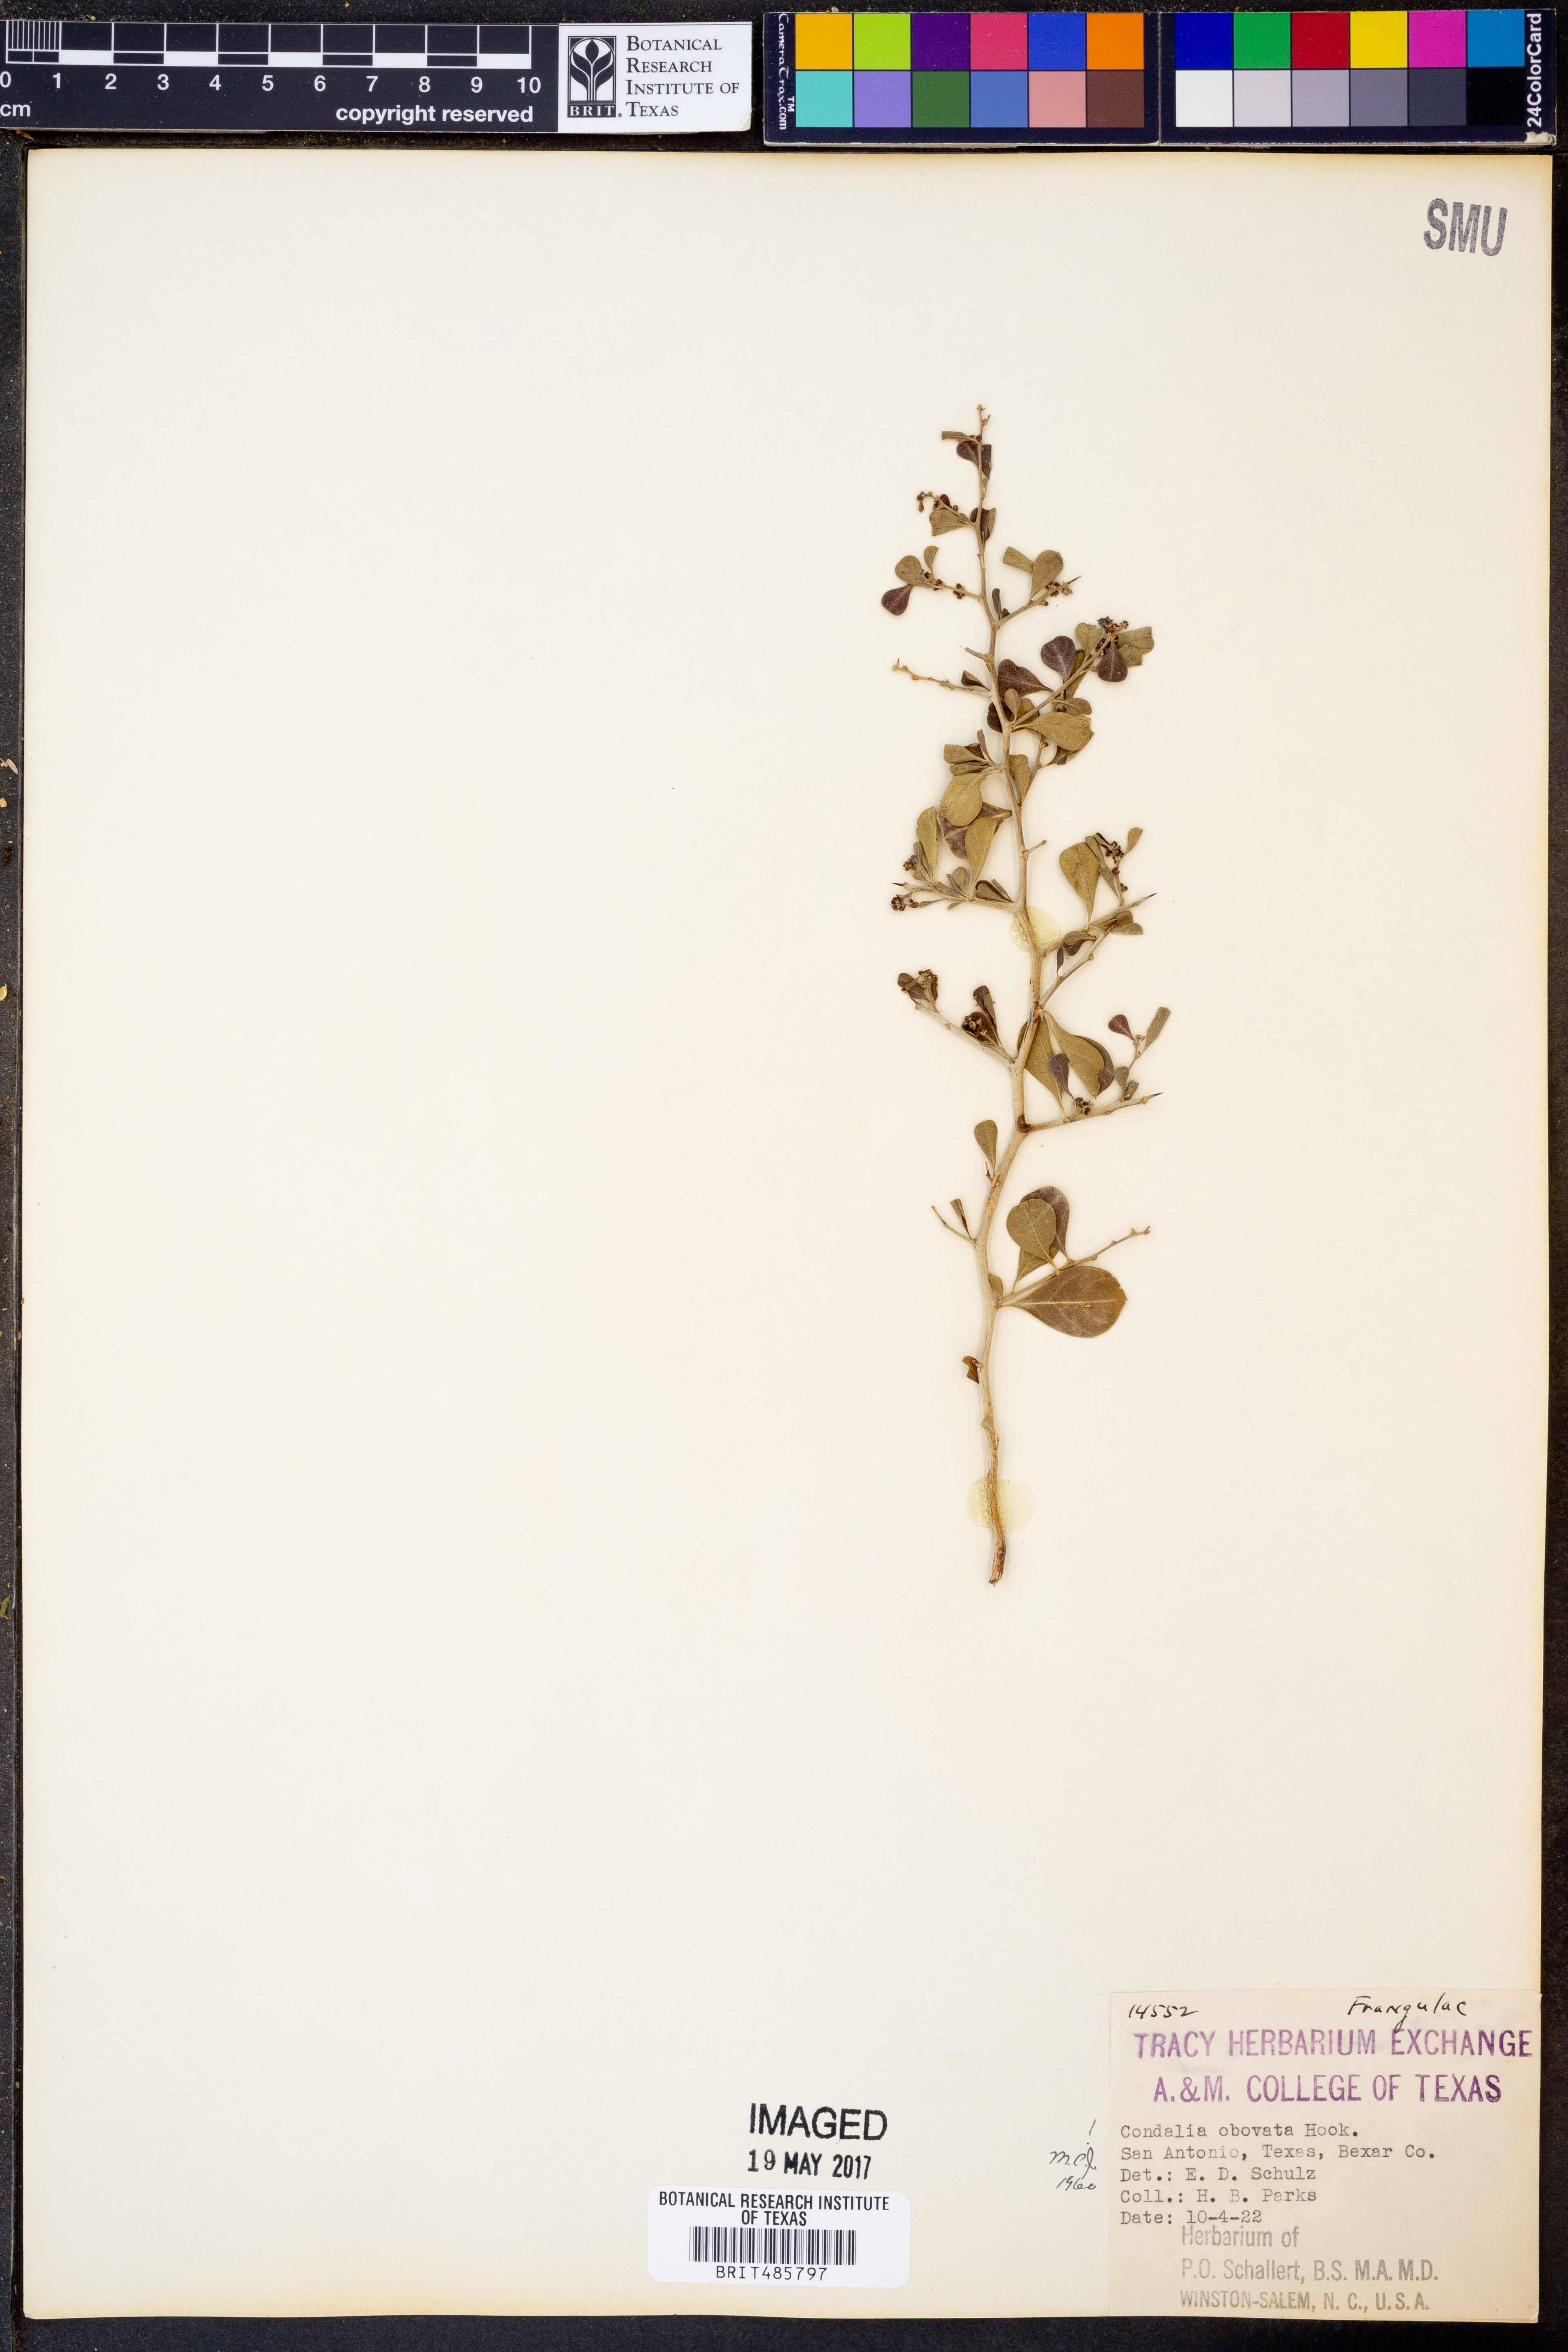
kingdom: Plantae
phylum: Tracheophyta
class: Magnoliopsida
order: Rosales
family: Rhamnaceae
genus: Condalia
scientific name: Condalia hookeri
